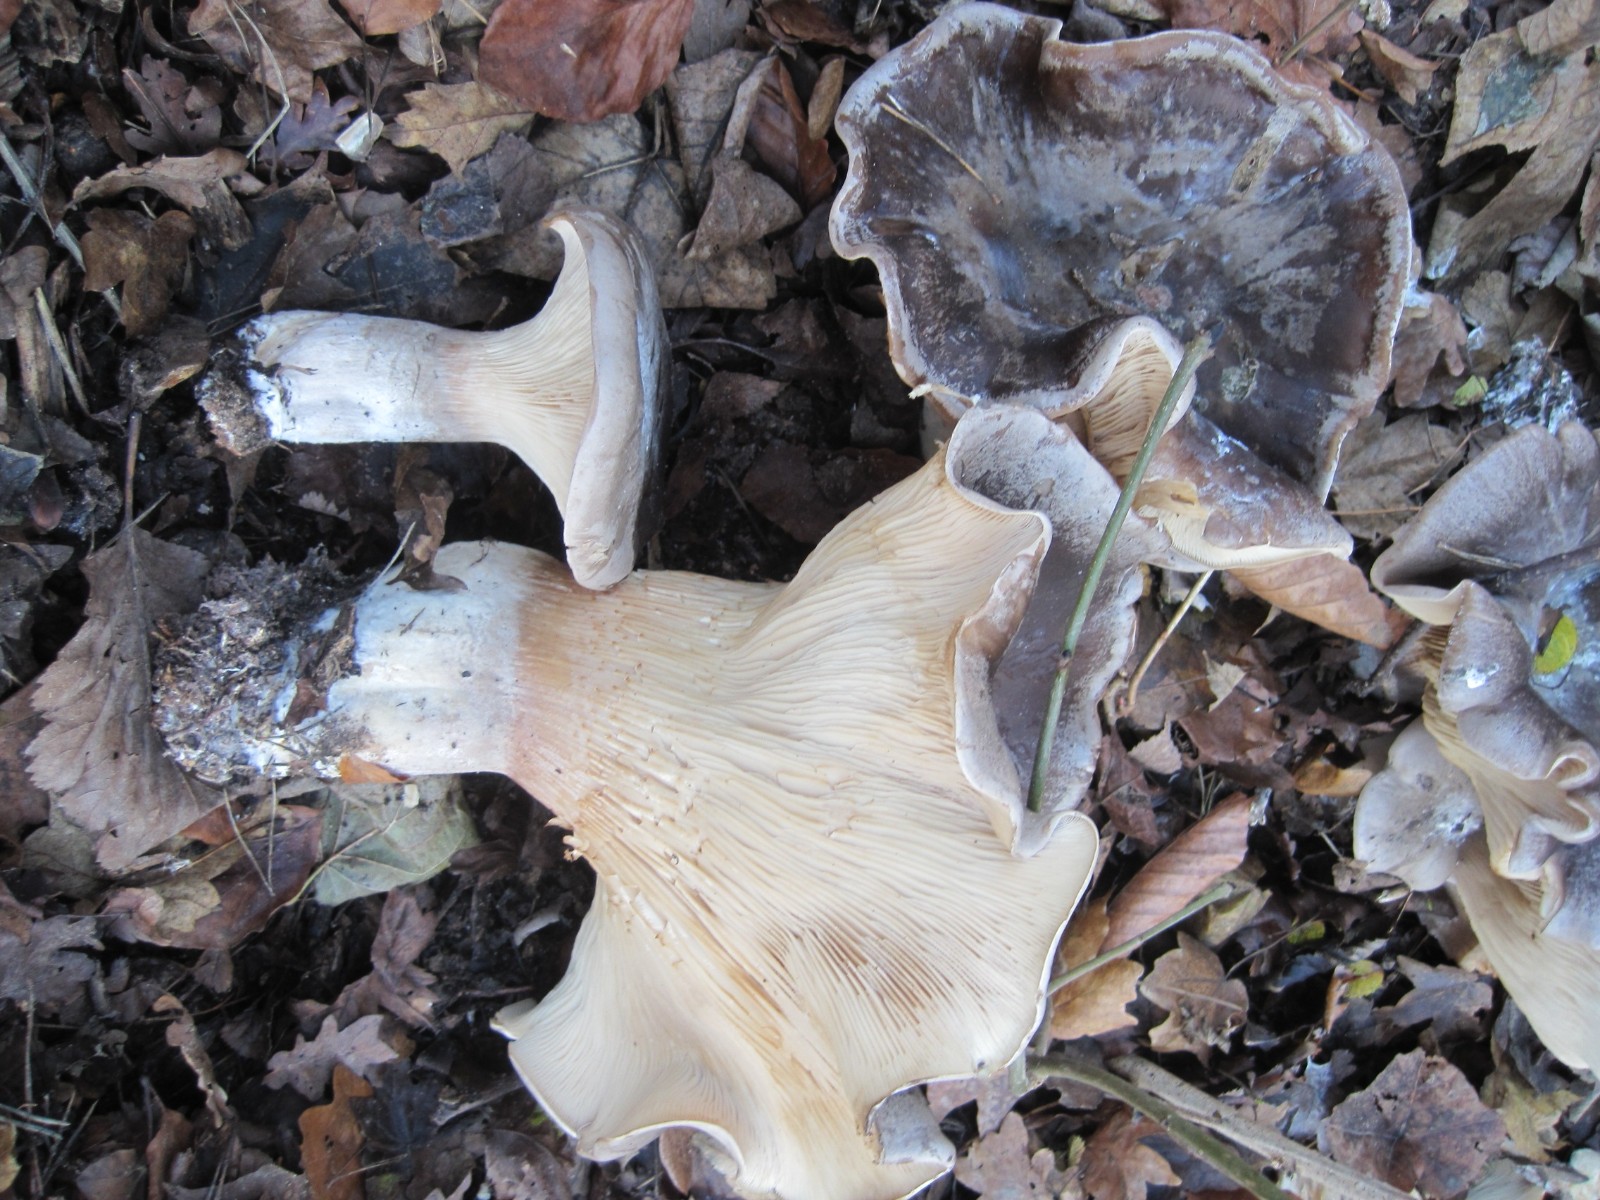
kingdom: Fungi
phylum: Basidiomycota
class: Agaricomycetes
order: Agaricales
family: Tricholomataceae
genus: Clitocybe
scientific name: Clitocybe nebularis
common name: tåge-tragthat
